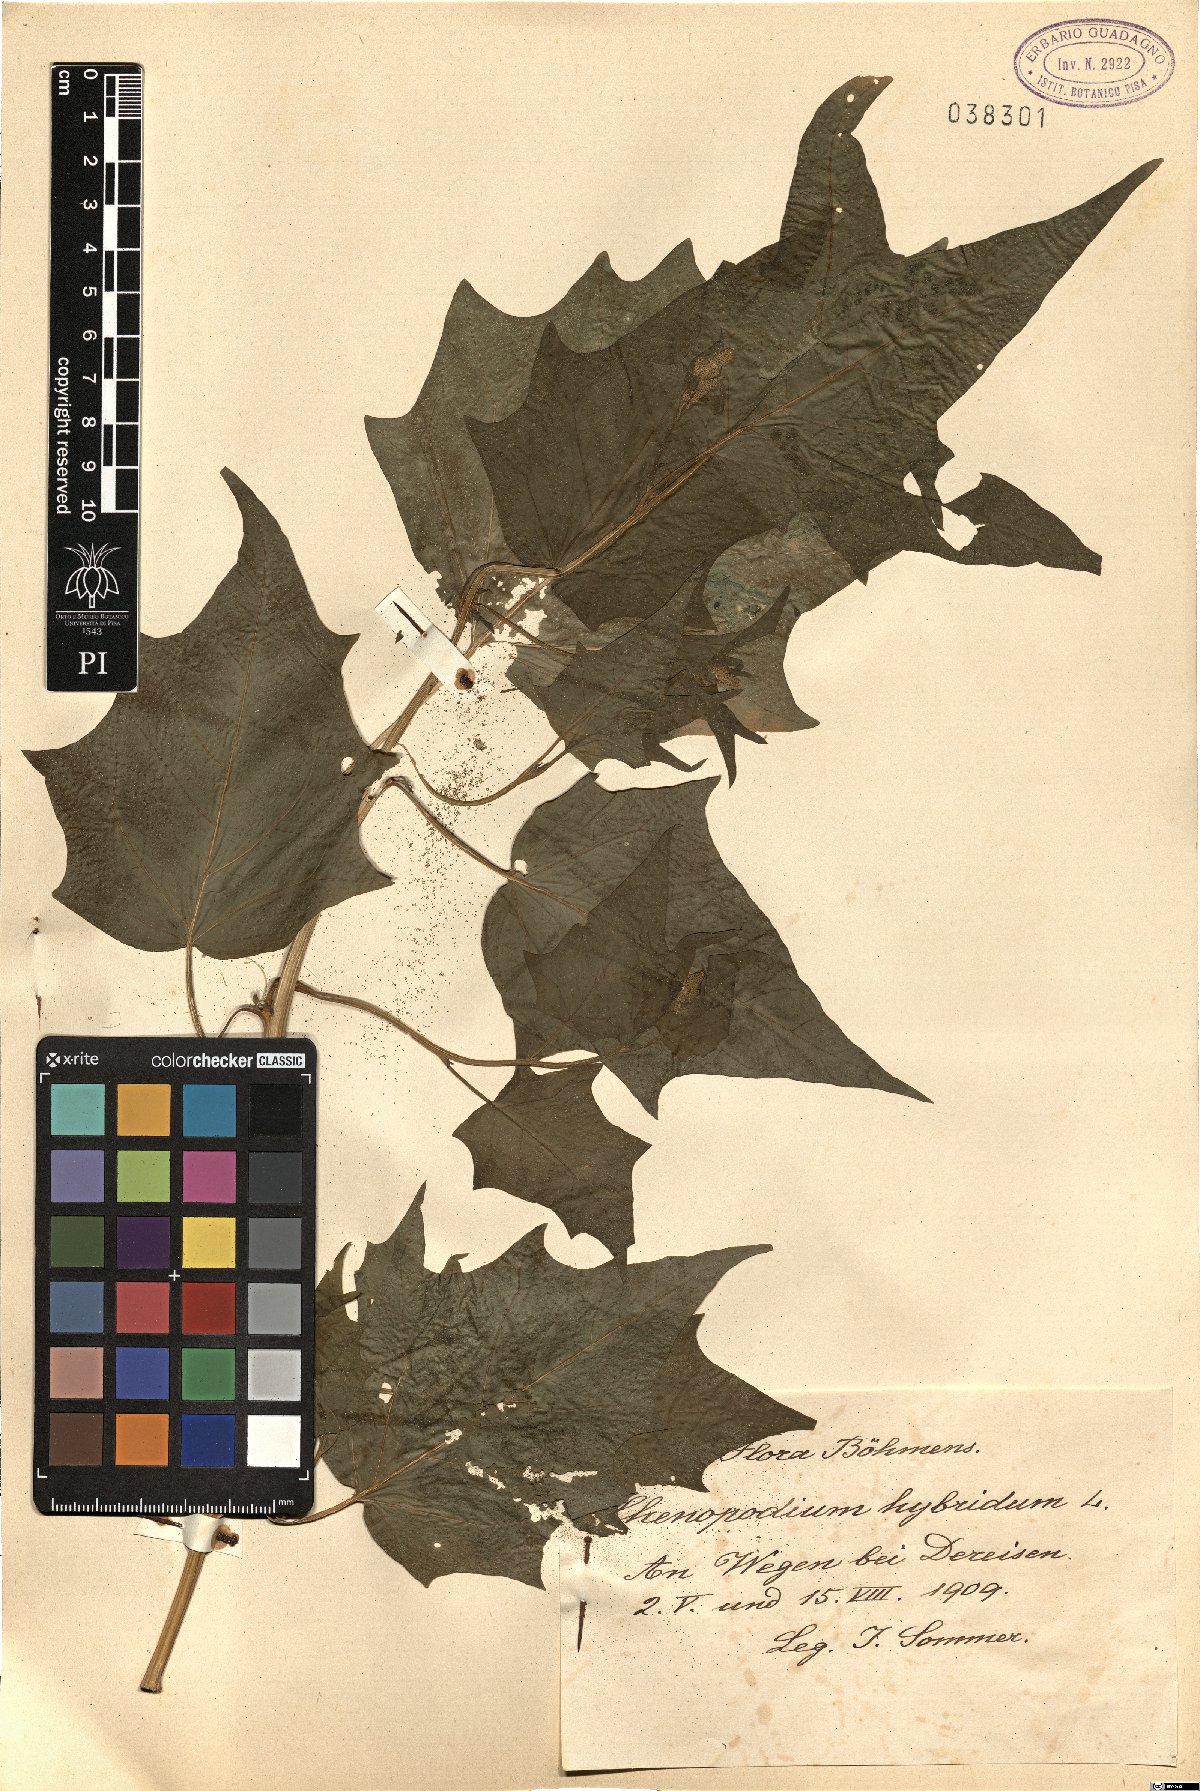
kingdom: Plantae
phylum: Tracheophyta
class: Magnoliopsida
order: Caryophyllales
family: Amaranthaceae
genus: Chenopodiastrum
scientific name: Chenopodiastrum hybridum
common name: Mapleleaf goosefoot
